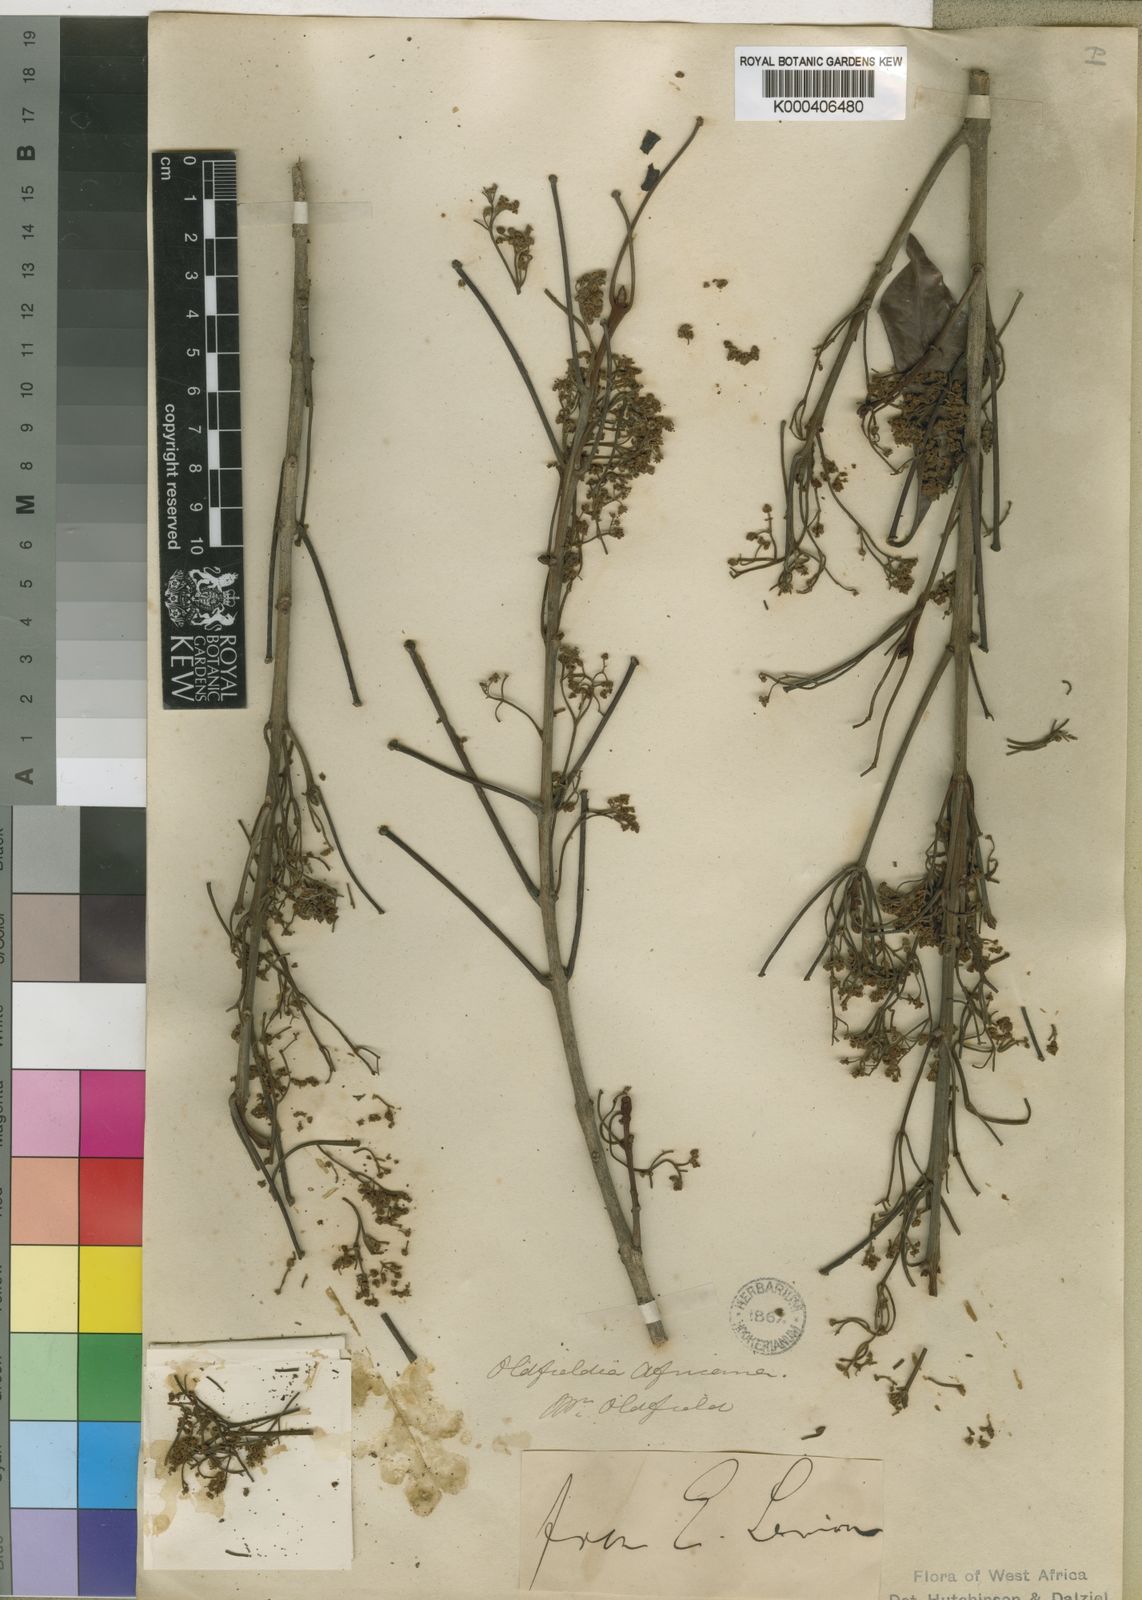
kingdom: Plantae
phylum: Tracheophyta
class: Magnoliopsida
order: Malpighiales
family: Picrodendraceae
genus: Oldfieldia
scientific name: Oldfieldia africana
